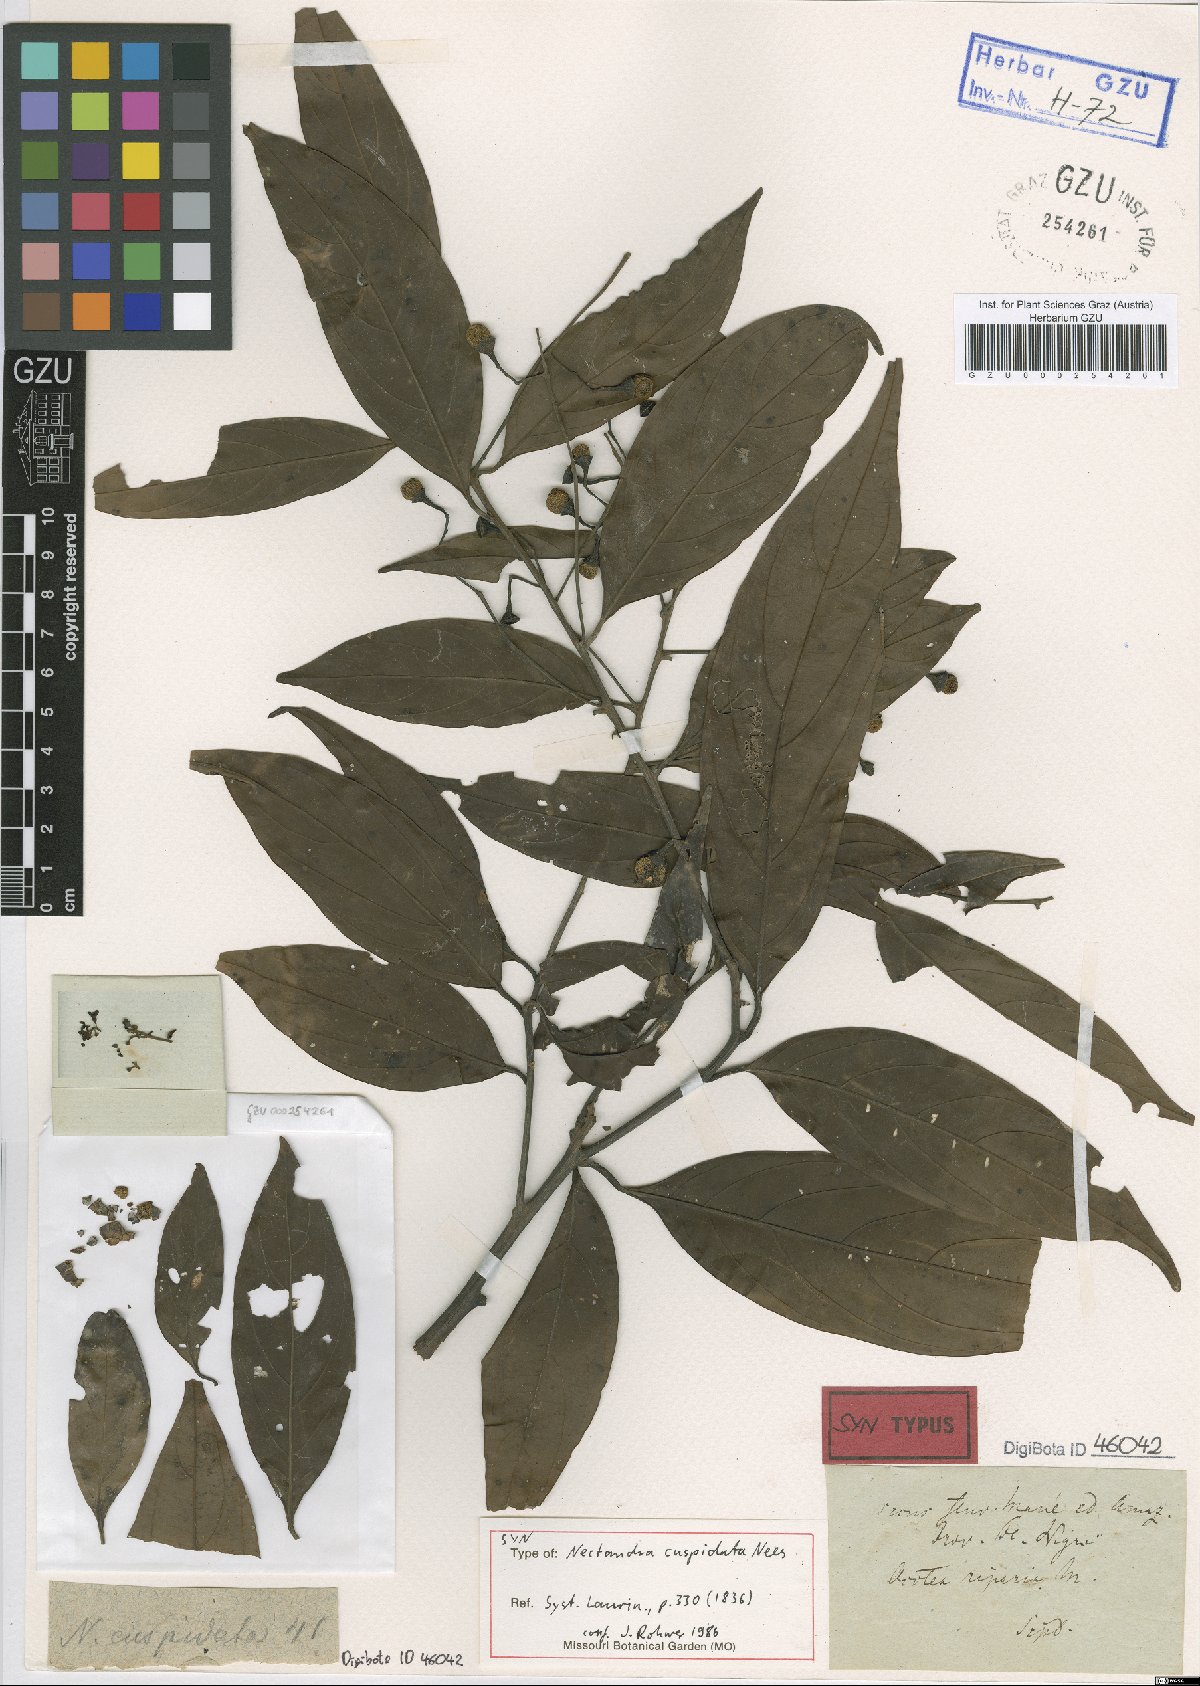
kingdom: Plantae
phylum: Tracheophyta
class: Magnoliopsida
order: Laurales
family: Lauraceae
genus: Nectandra
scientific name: Nectandra cuspidata
